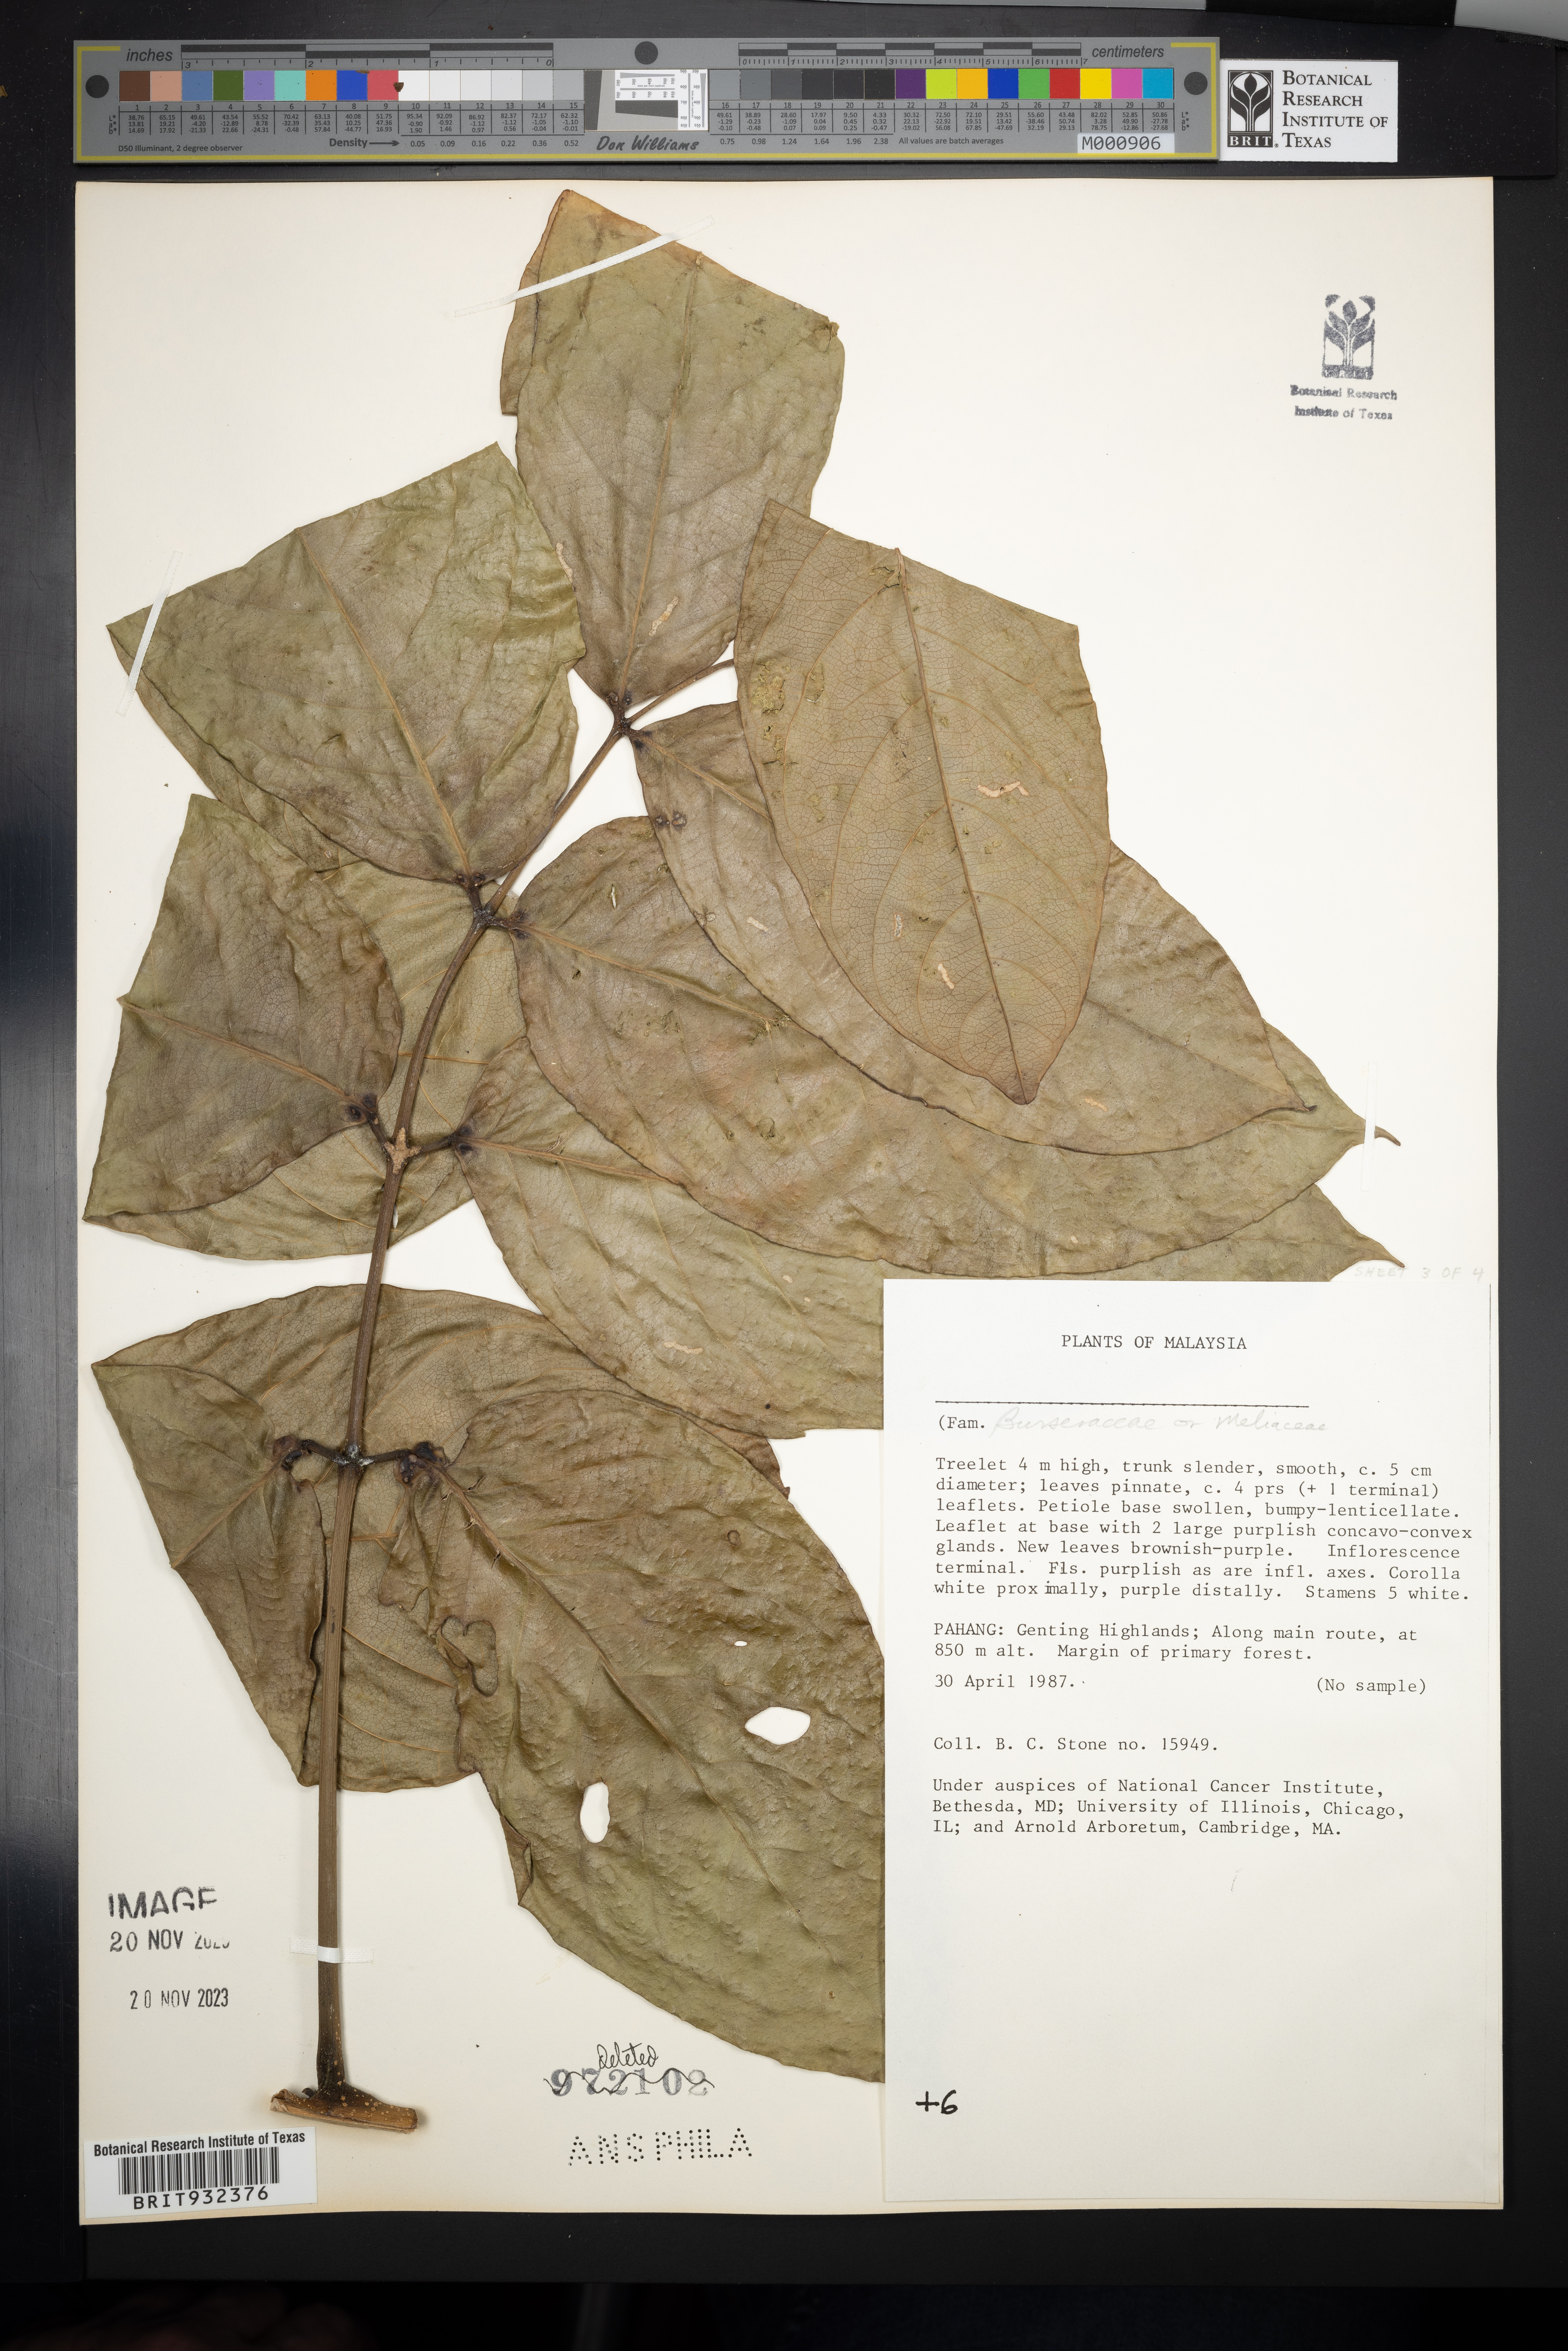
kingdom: Plantae
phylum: Tracheophyta
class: Magnoliopsida
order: Sapindales
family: Meliaceae
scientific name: Meliaceae
